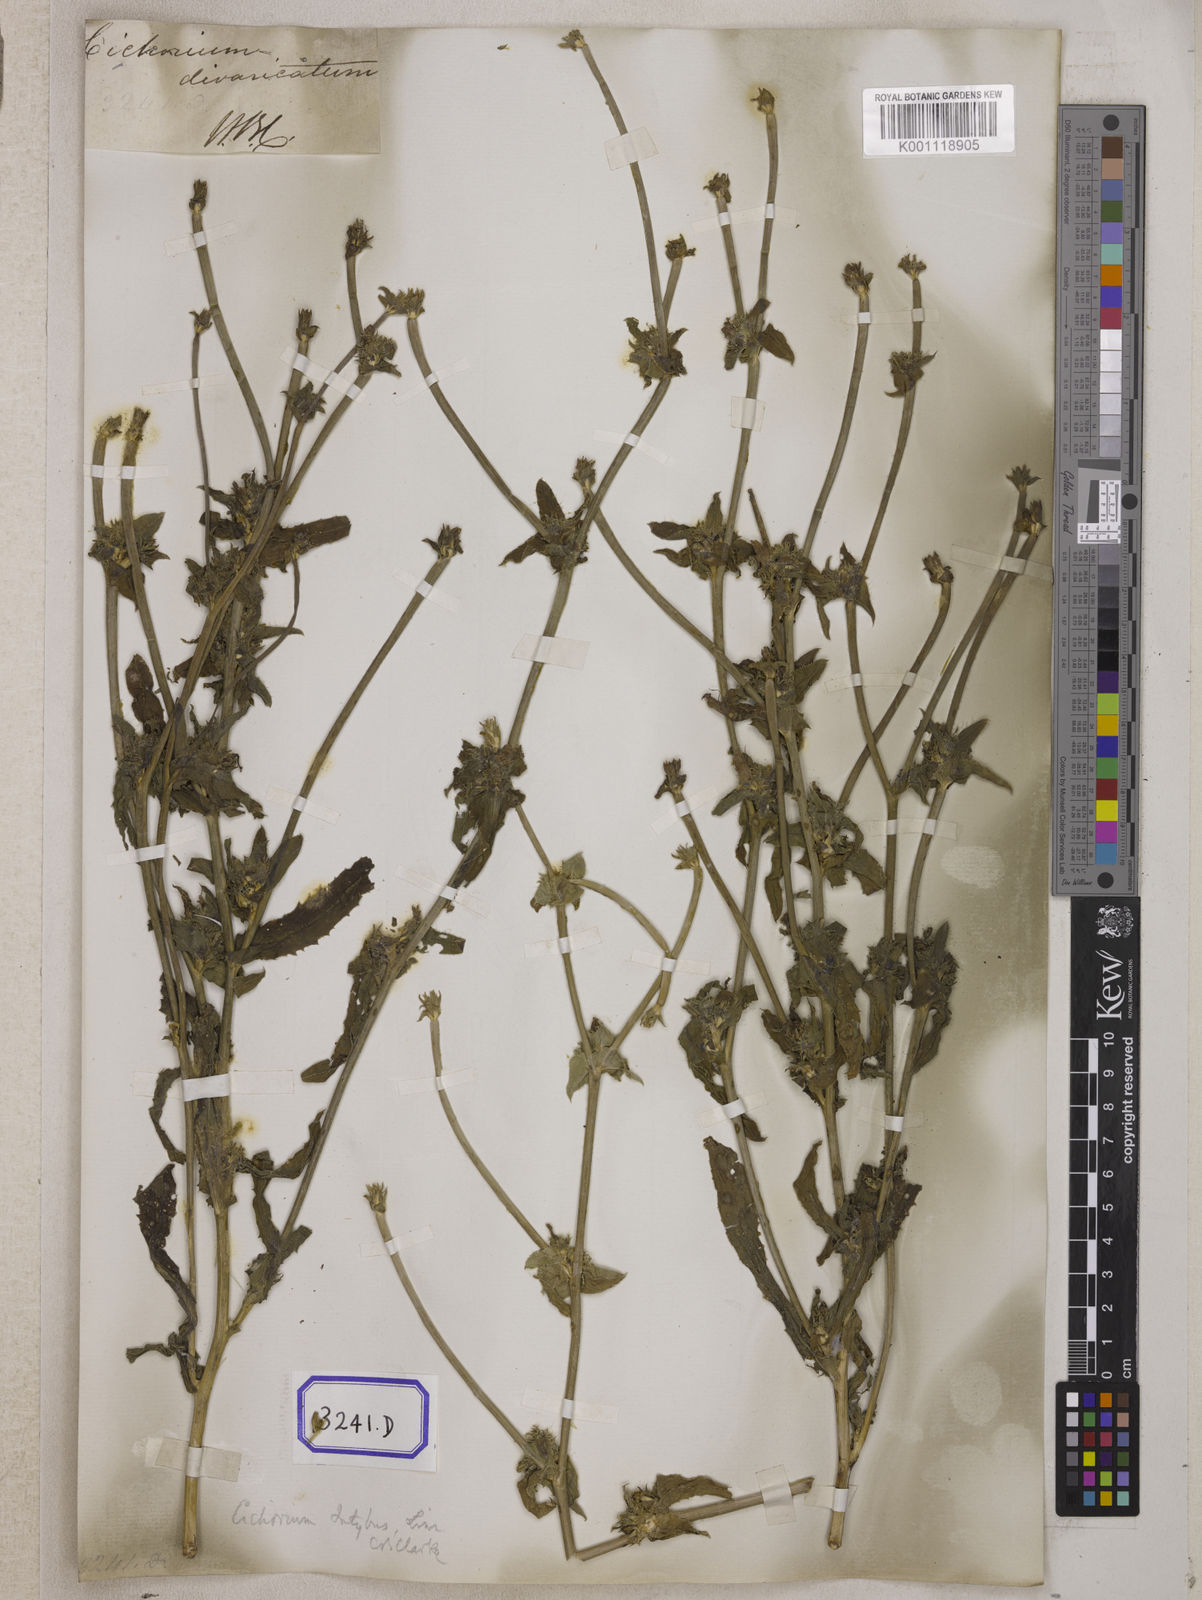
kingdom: Plantae
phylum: Tracheophyta
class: Magnoliopsida
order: Asterales
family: Asteraceae
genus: Cichorium
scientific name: Cichorium intybus
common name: Chicory
